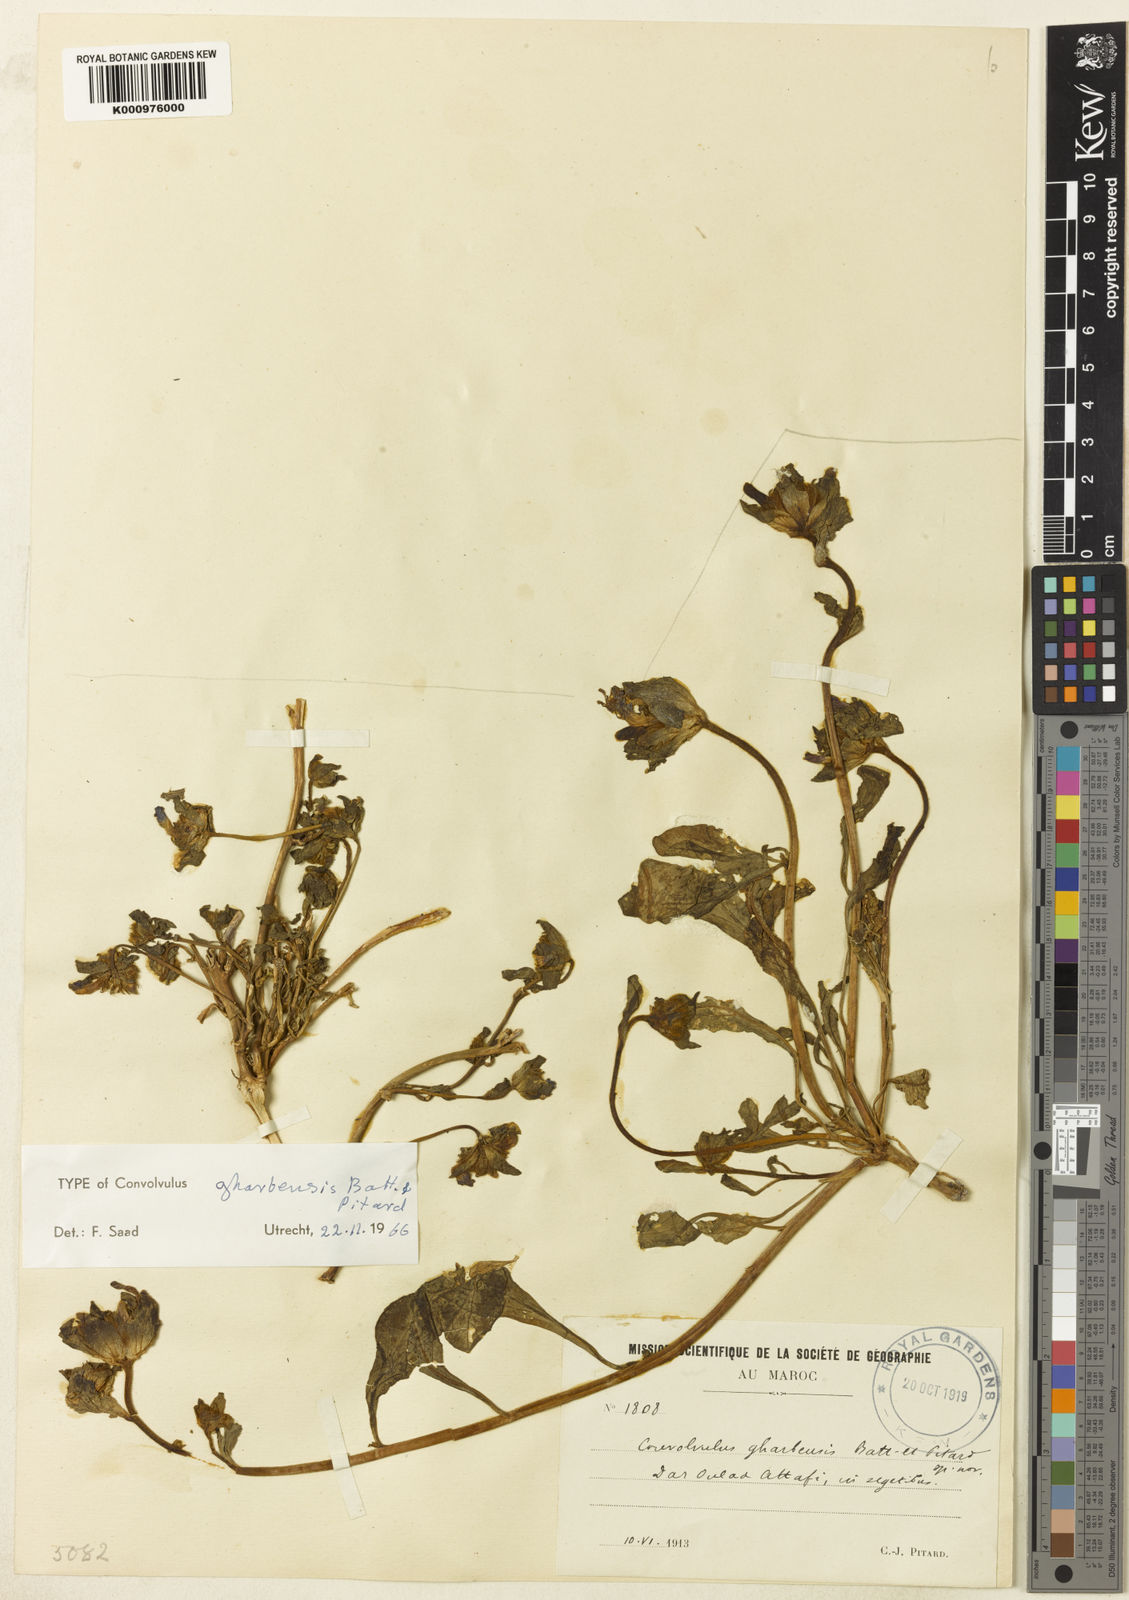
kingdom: Plantae
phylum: Tracheophyta
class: Magnoliopsida
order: Solanales
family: Convolvulaceae
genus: Convolvulus
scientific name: Convolvulus gharbensis
